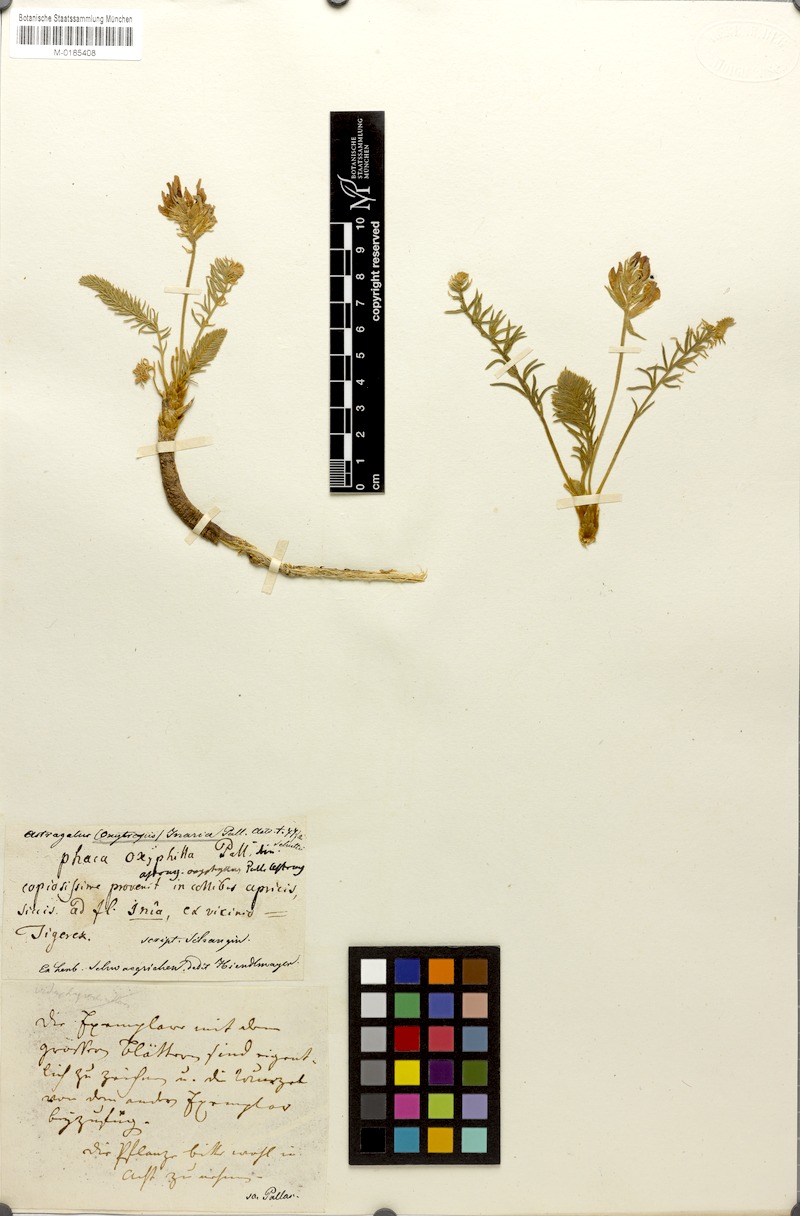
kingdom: Plantae
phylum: Tracheophyta
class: Magnoliopsida
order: Fabales
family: Fabaceae
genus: Oxytropis
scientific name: Oxytropis oxyphylla
